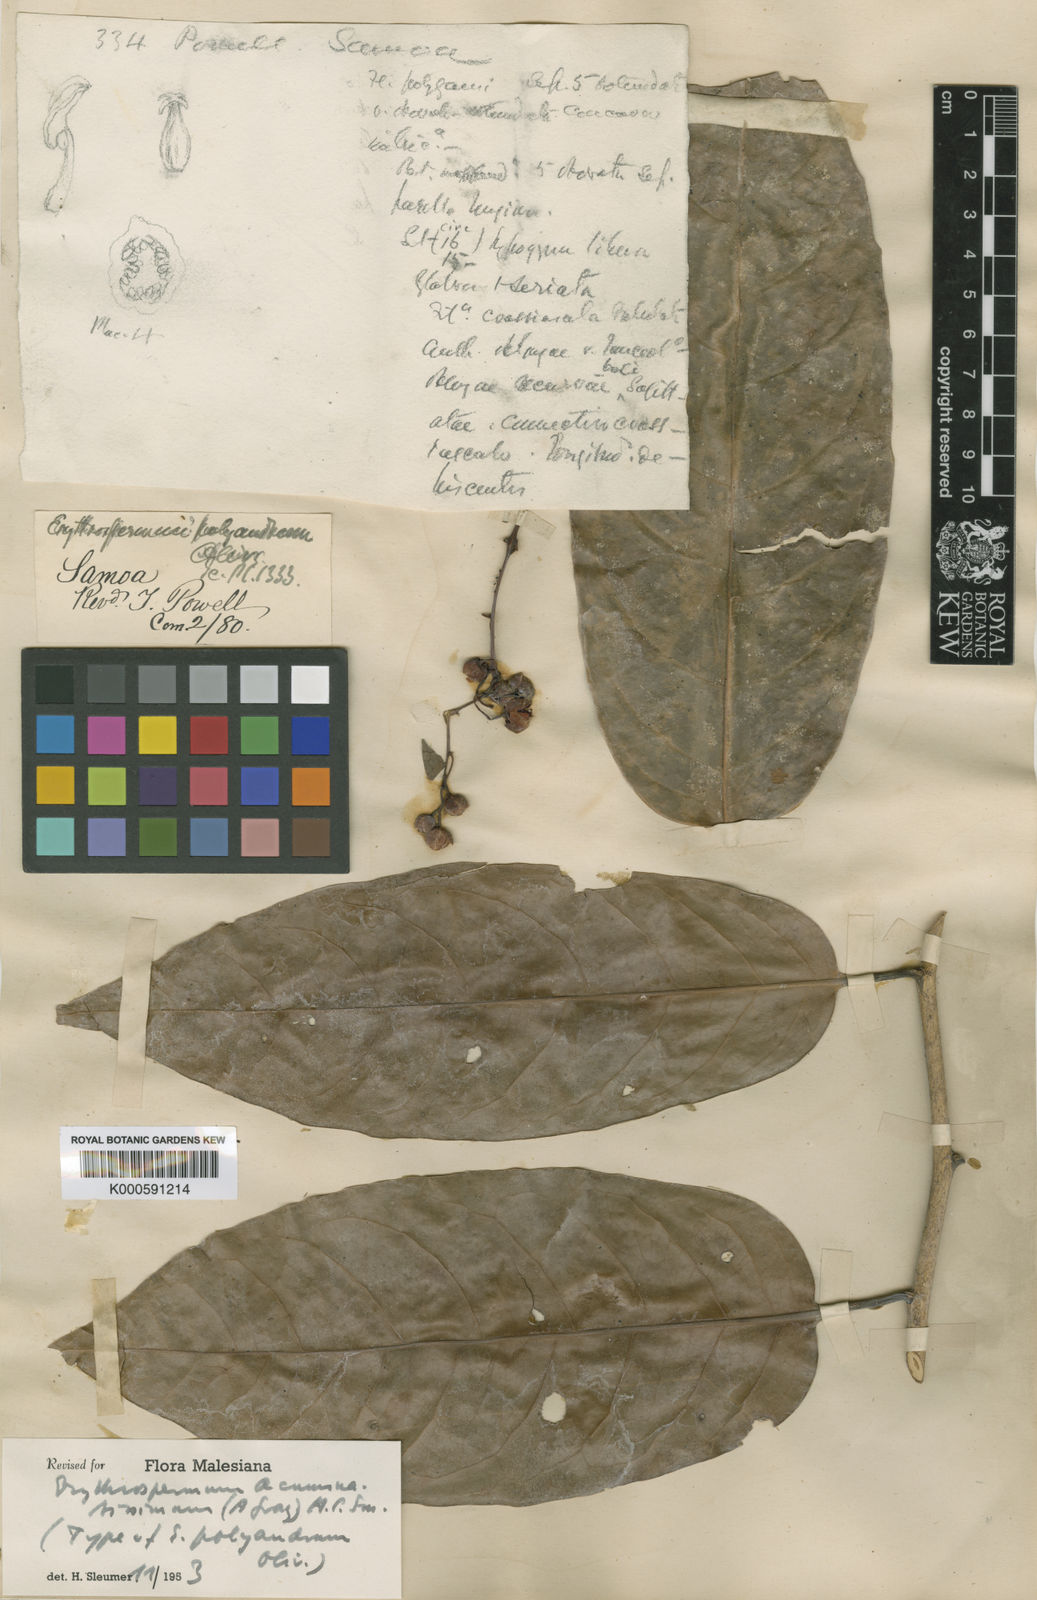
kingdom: Plantae
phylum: Tracheophyta
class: Magnoliopsida
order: Malpighiales
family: Achariaceae
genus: Erythrospermum
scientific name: Erythrospermum acuminatissimum
